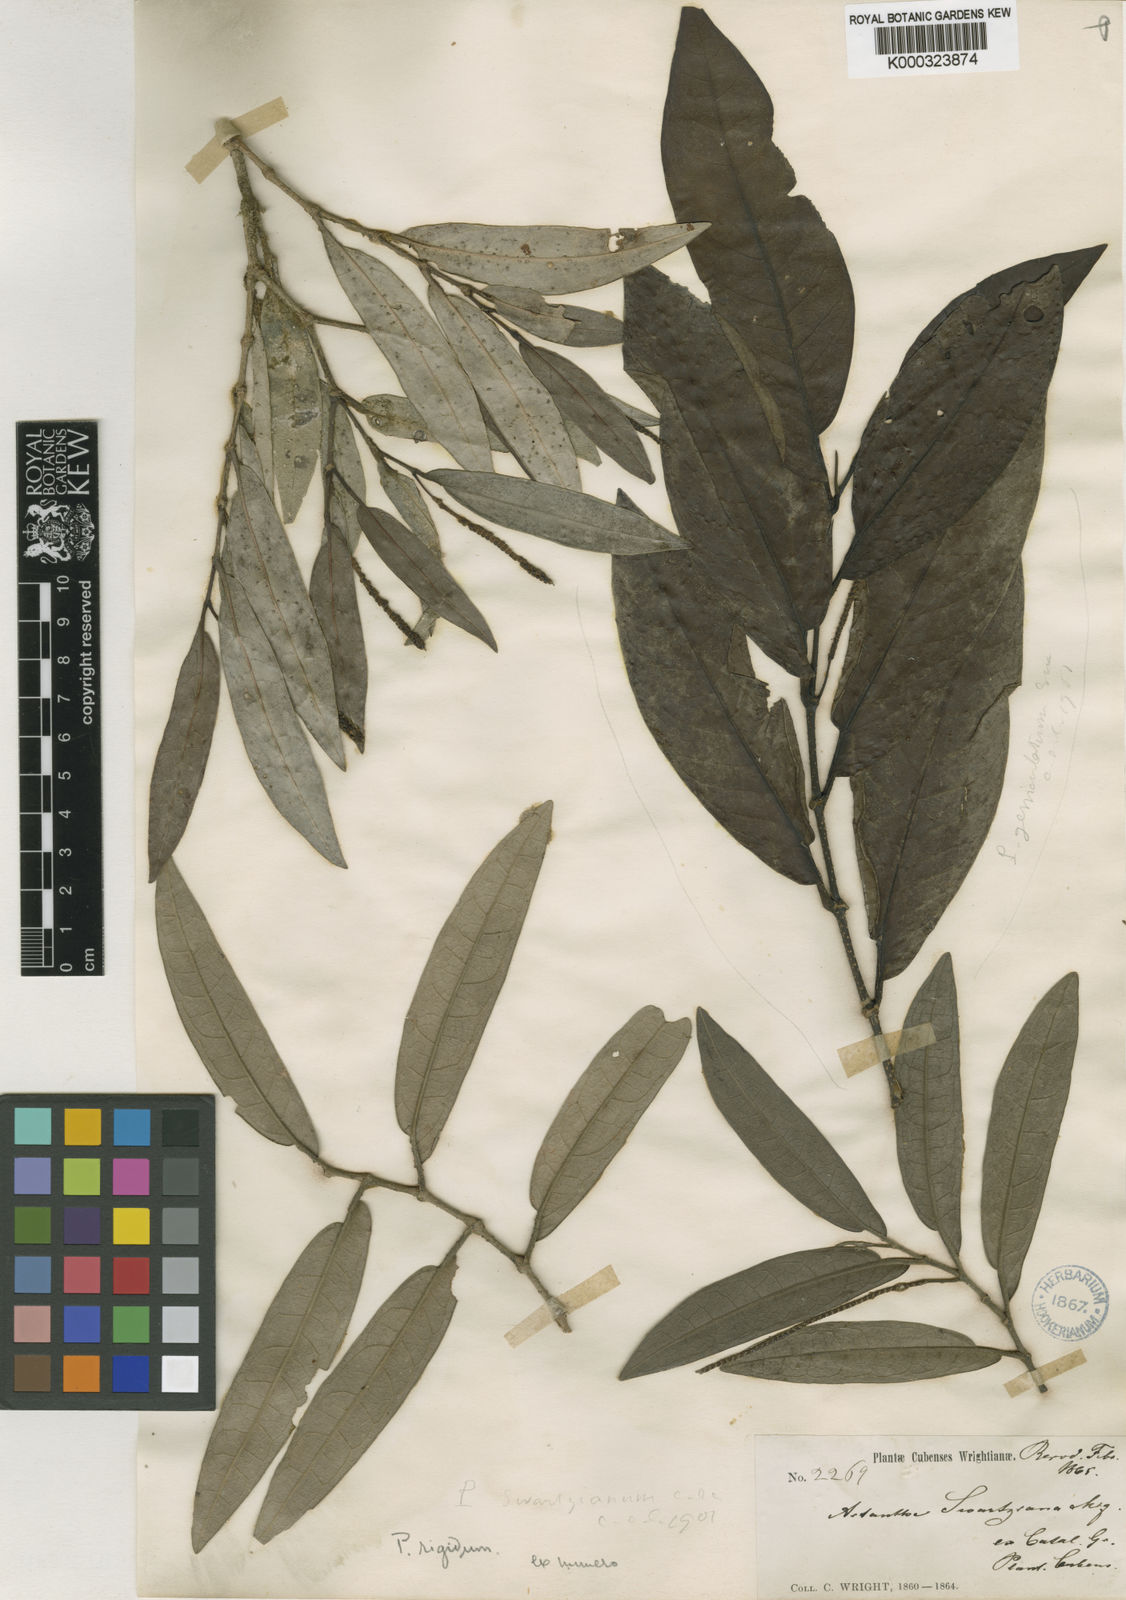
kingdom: Plantae
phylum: Tracheophyta
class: Magnoliopsida
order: Piperales
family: Piperaceae
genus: Piper
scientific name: Piper arboreum
